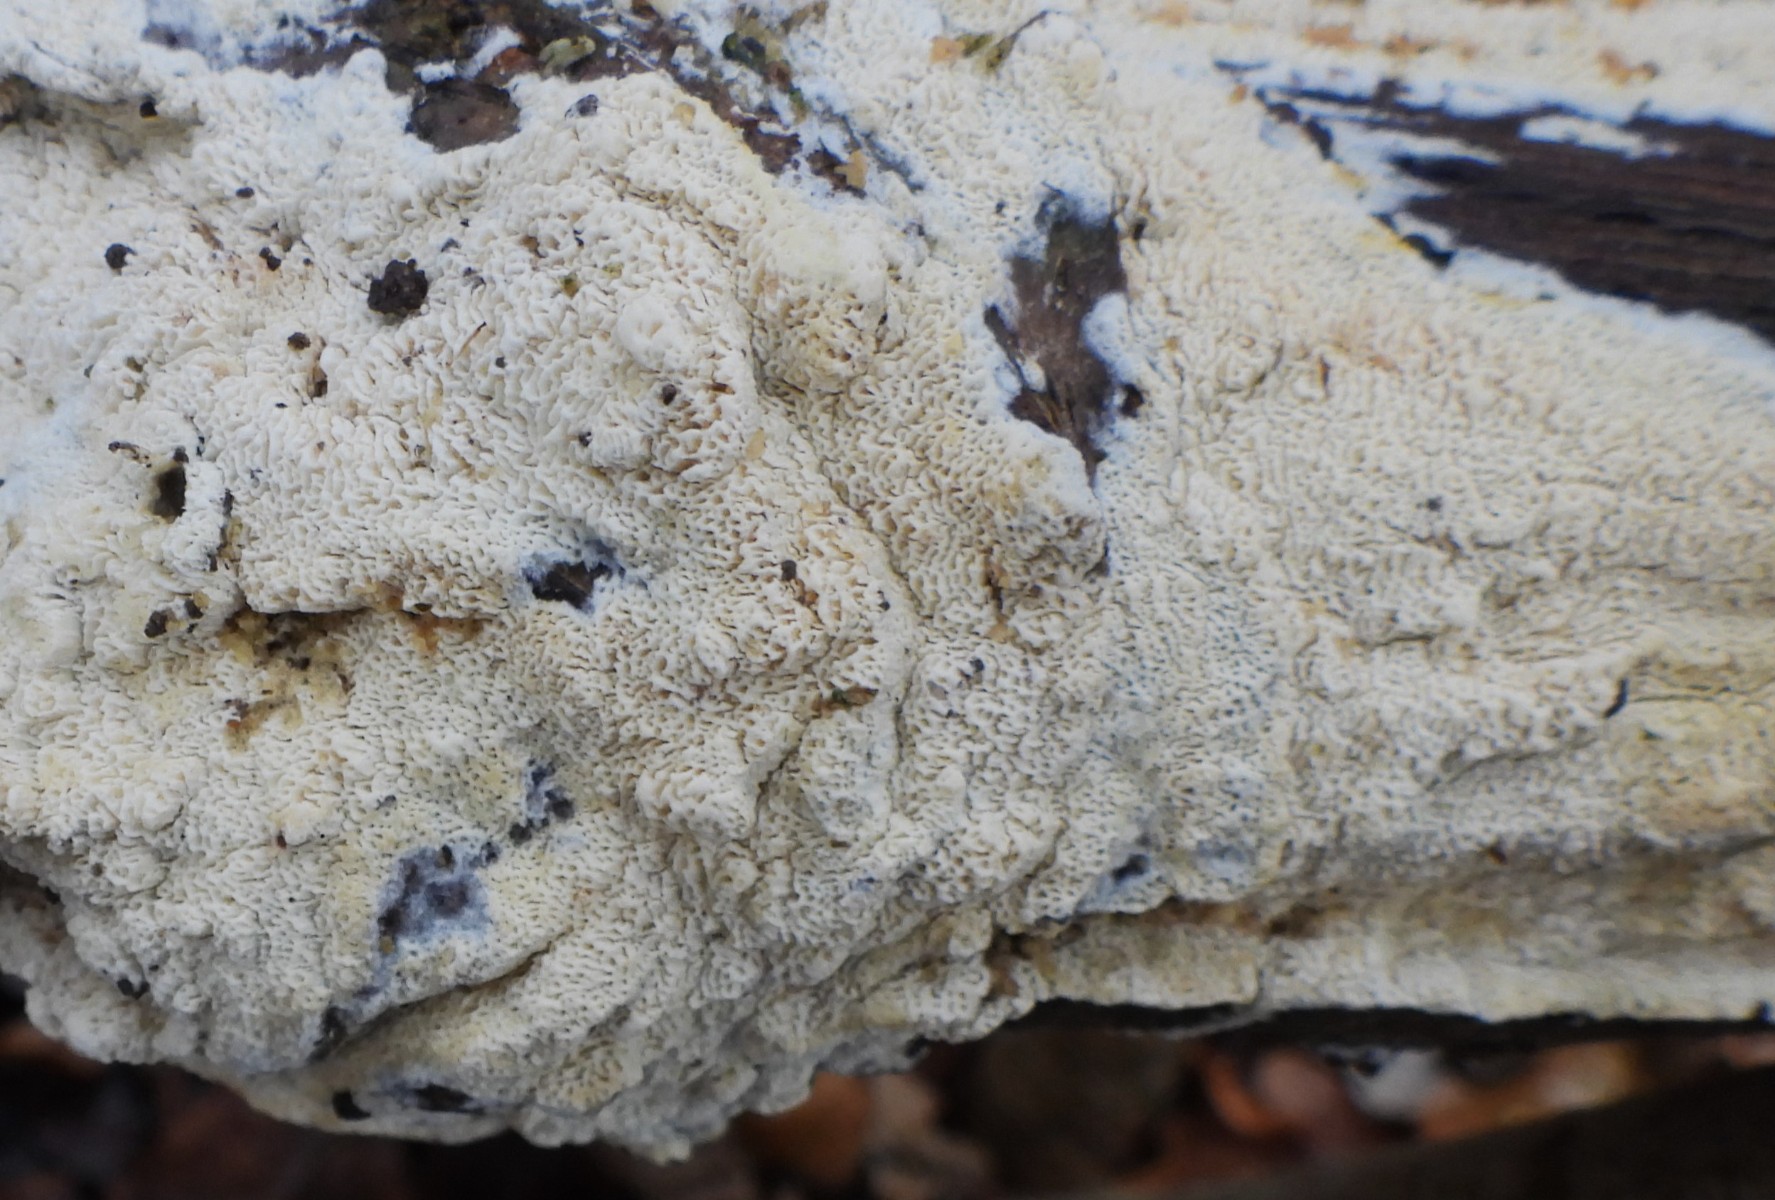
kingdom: Fungi
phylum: Basidiomycota
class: Agaricomycetes
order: Hymenochaetales
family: Schizoporaceae
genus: Xylodon
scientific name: Xylodon subtropicus
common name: labyrint-tandsvamp
